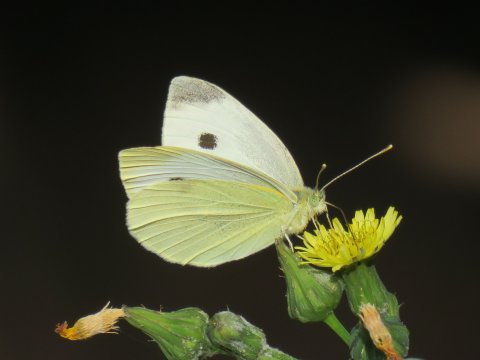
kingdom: Animalia
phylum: Arthropoda
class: Insecta
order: Lepidoptera
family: Pieridae
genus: Pieris
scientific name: Pieris rapae
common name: Cabbage White
